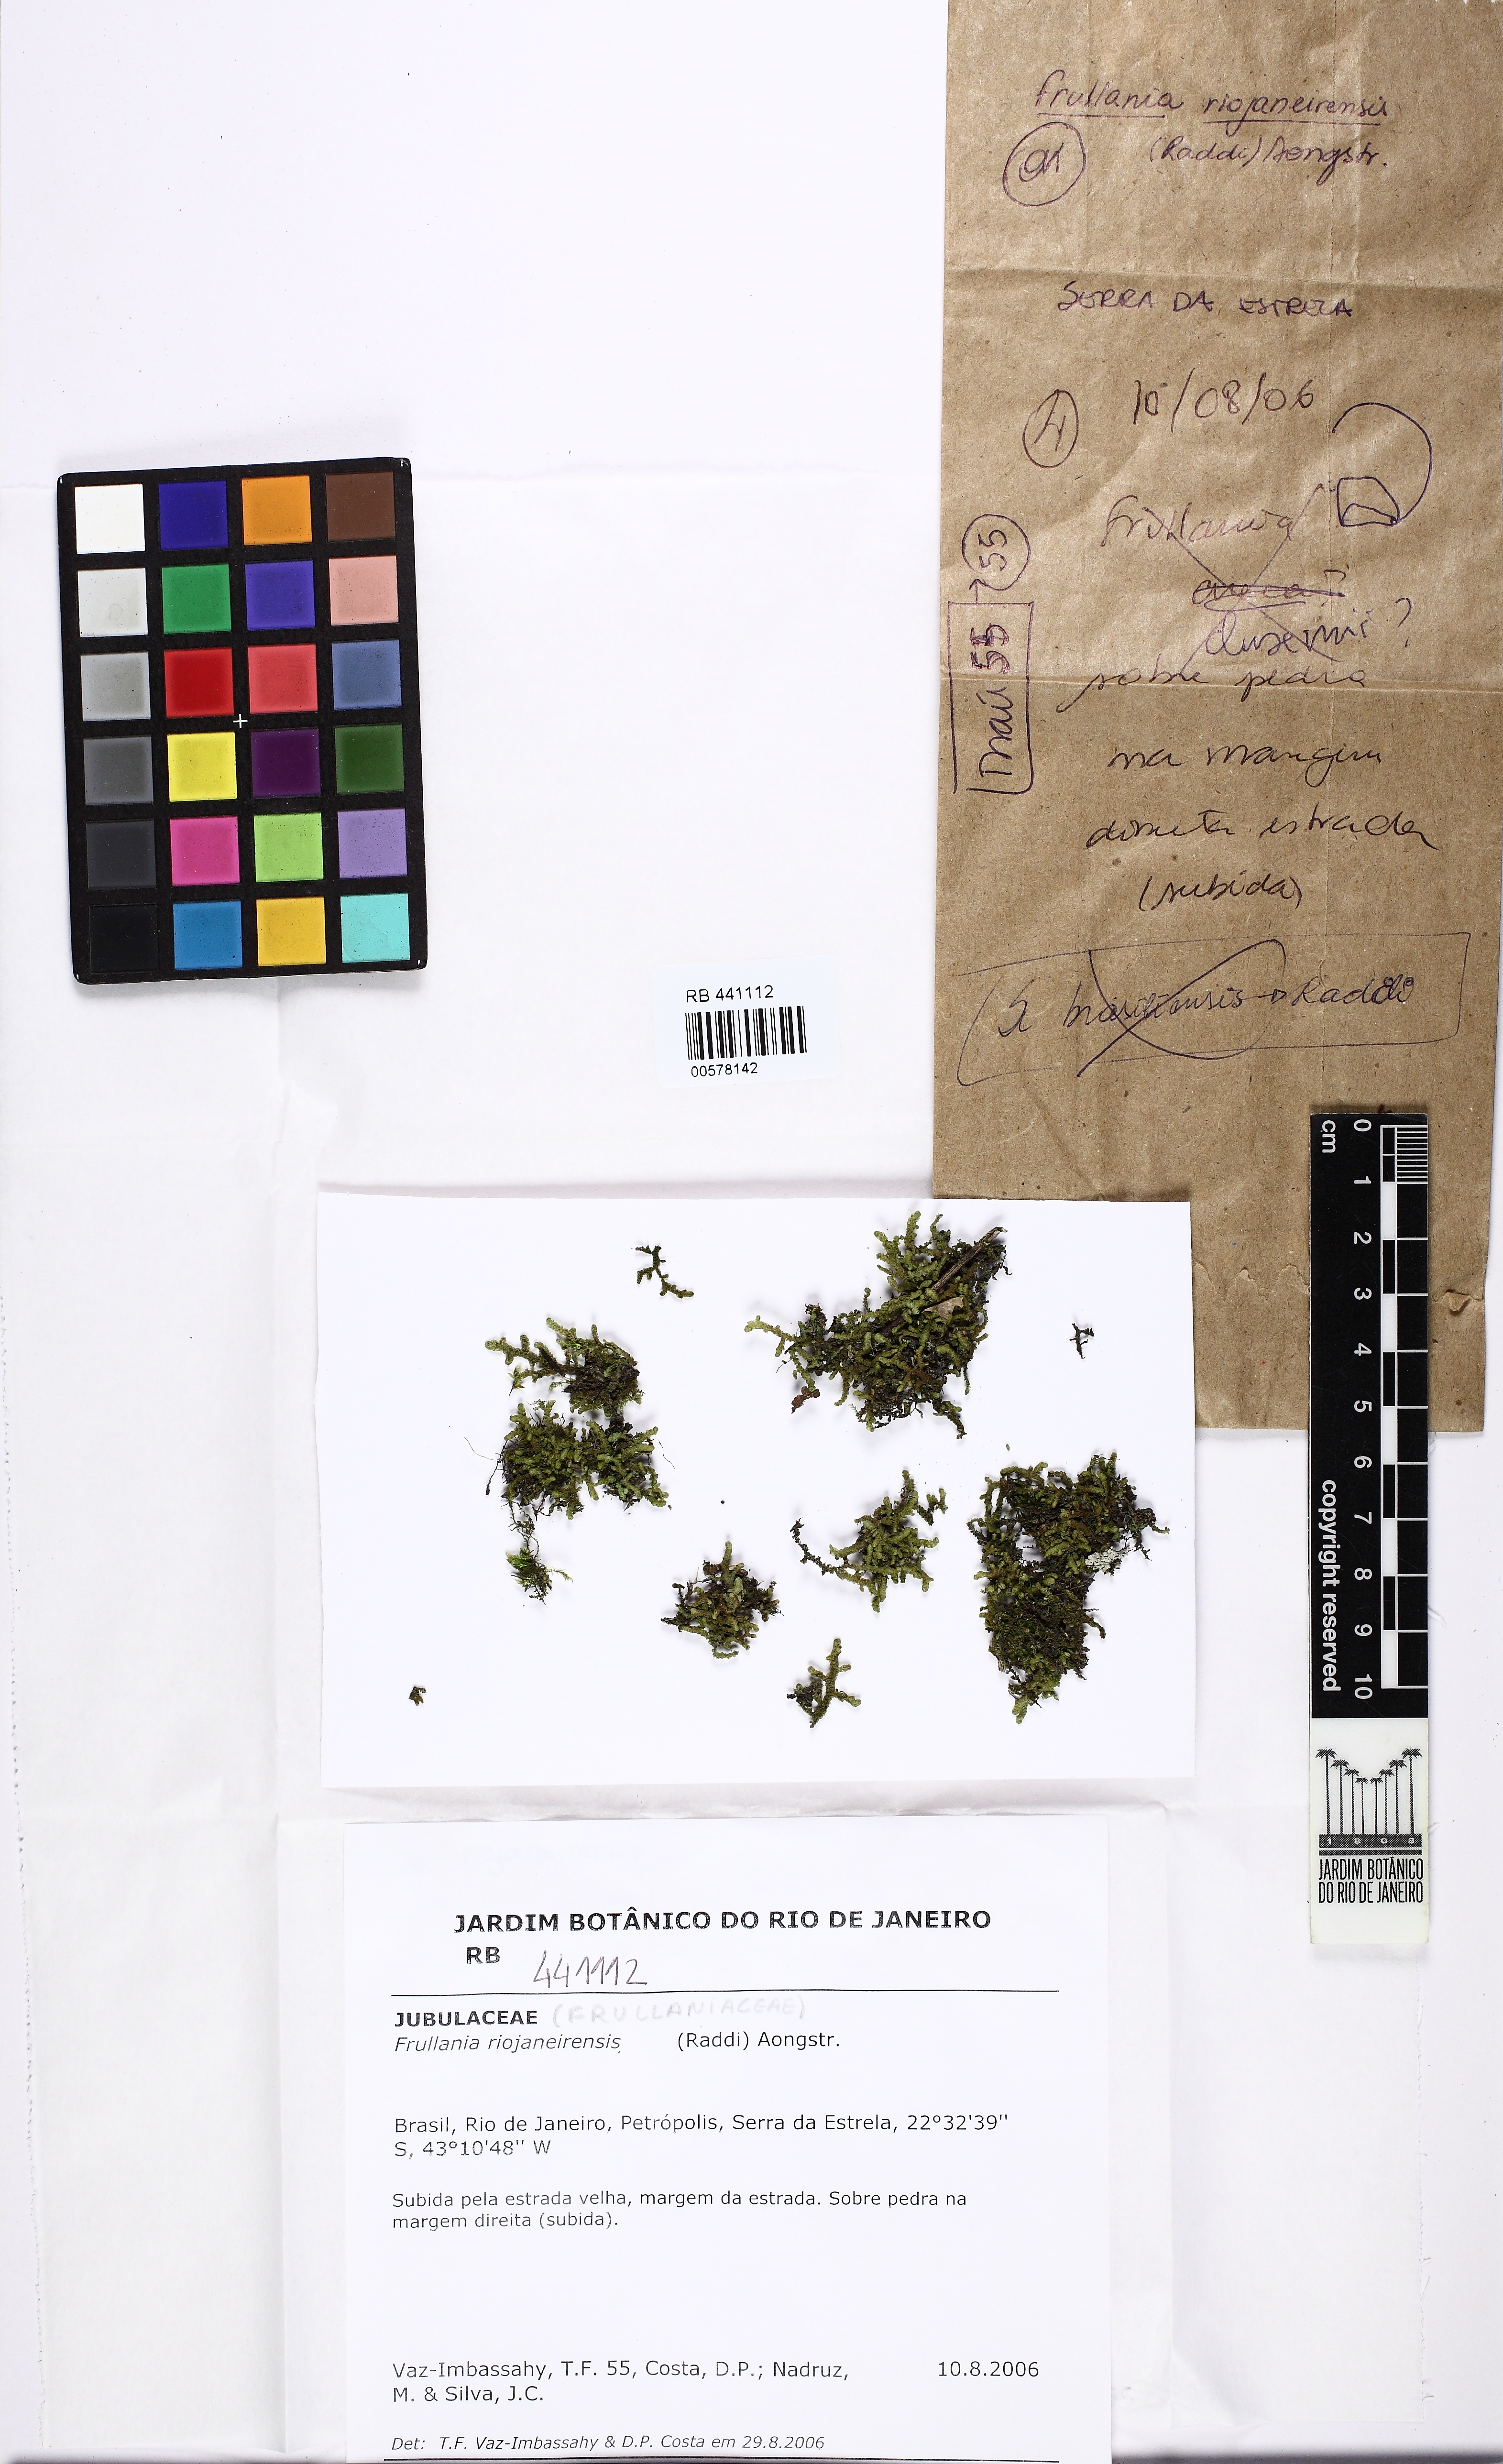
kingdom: Plantae
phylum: Marchantiophyta
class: Jungermanniopsida
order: Porellales
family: Frullaniaceae
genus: Frullania
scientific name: Frullania riojaneirensis
